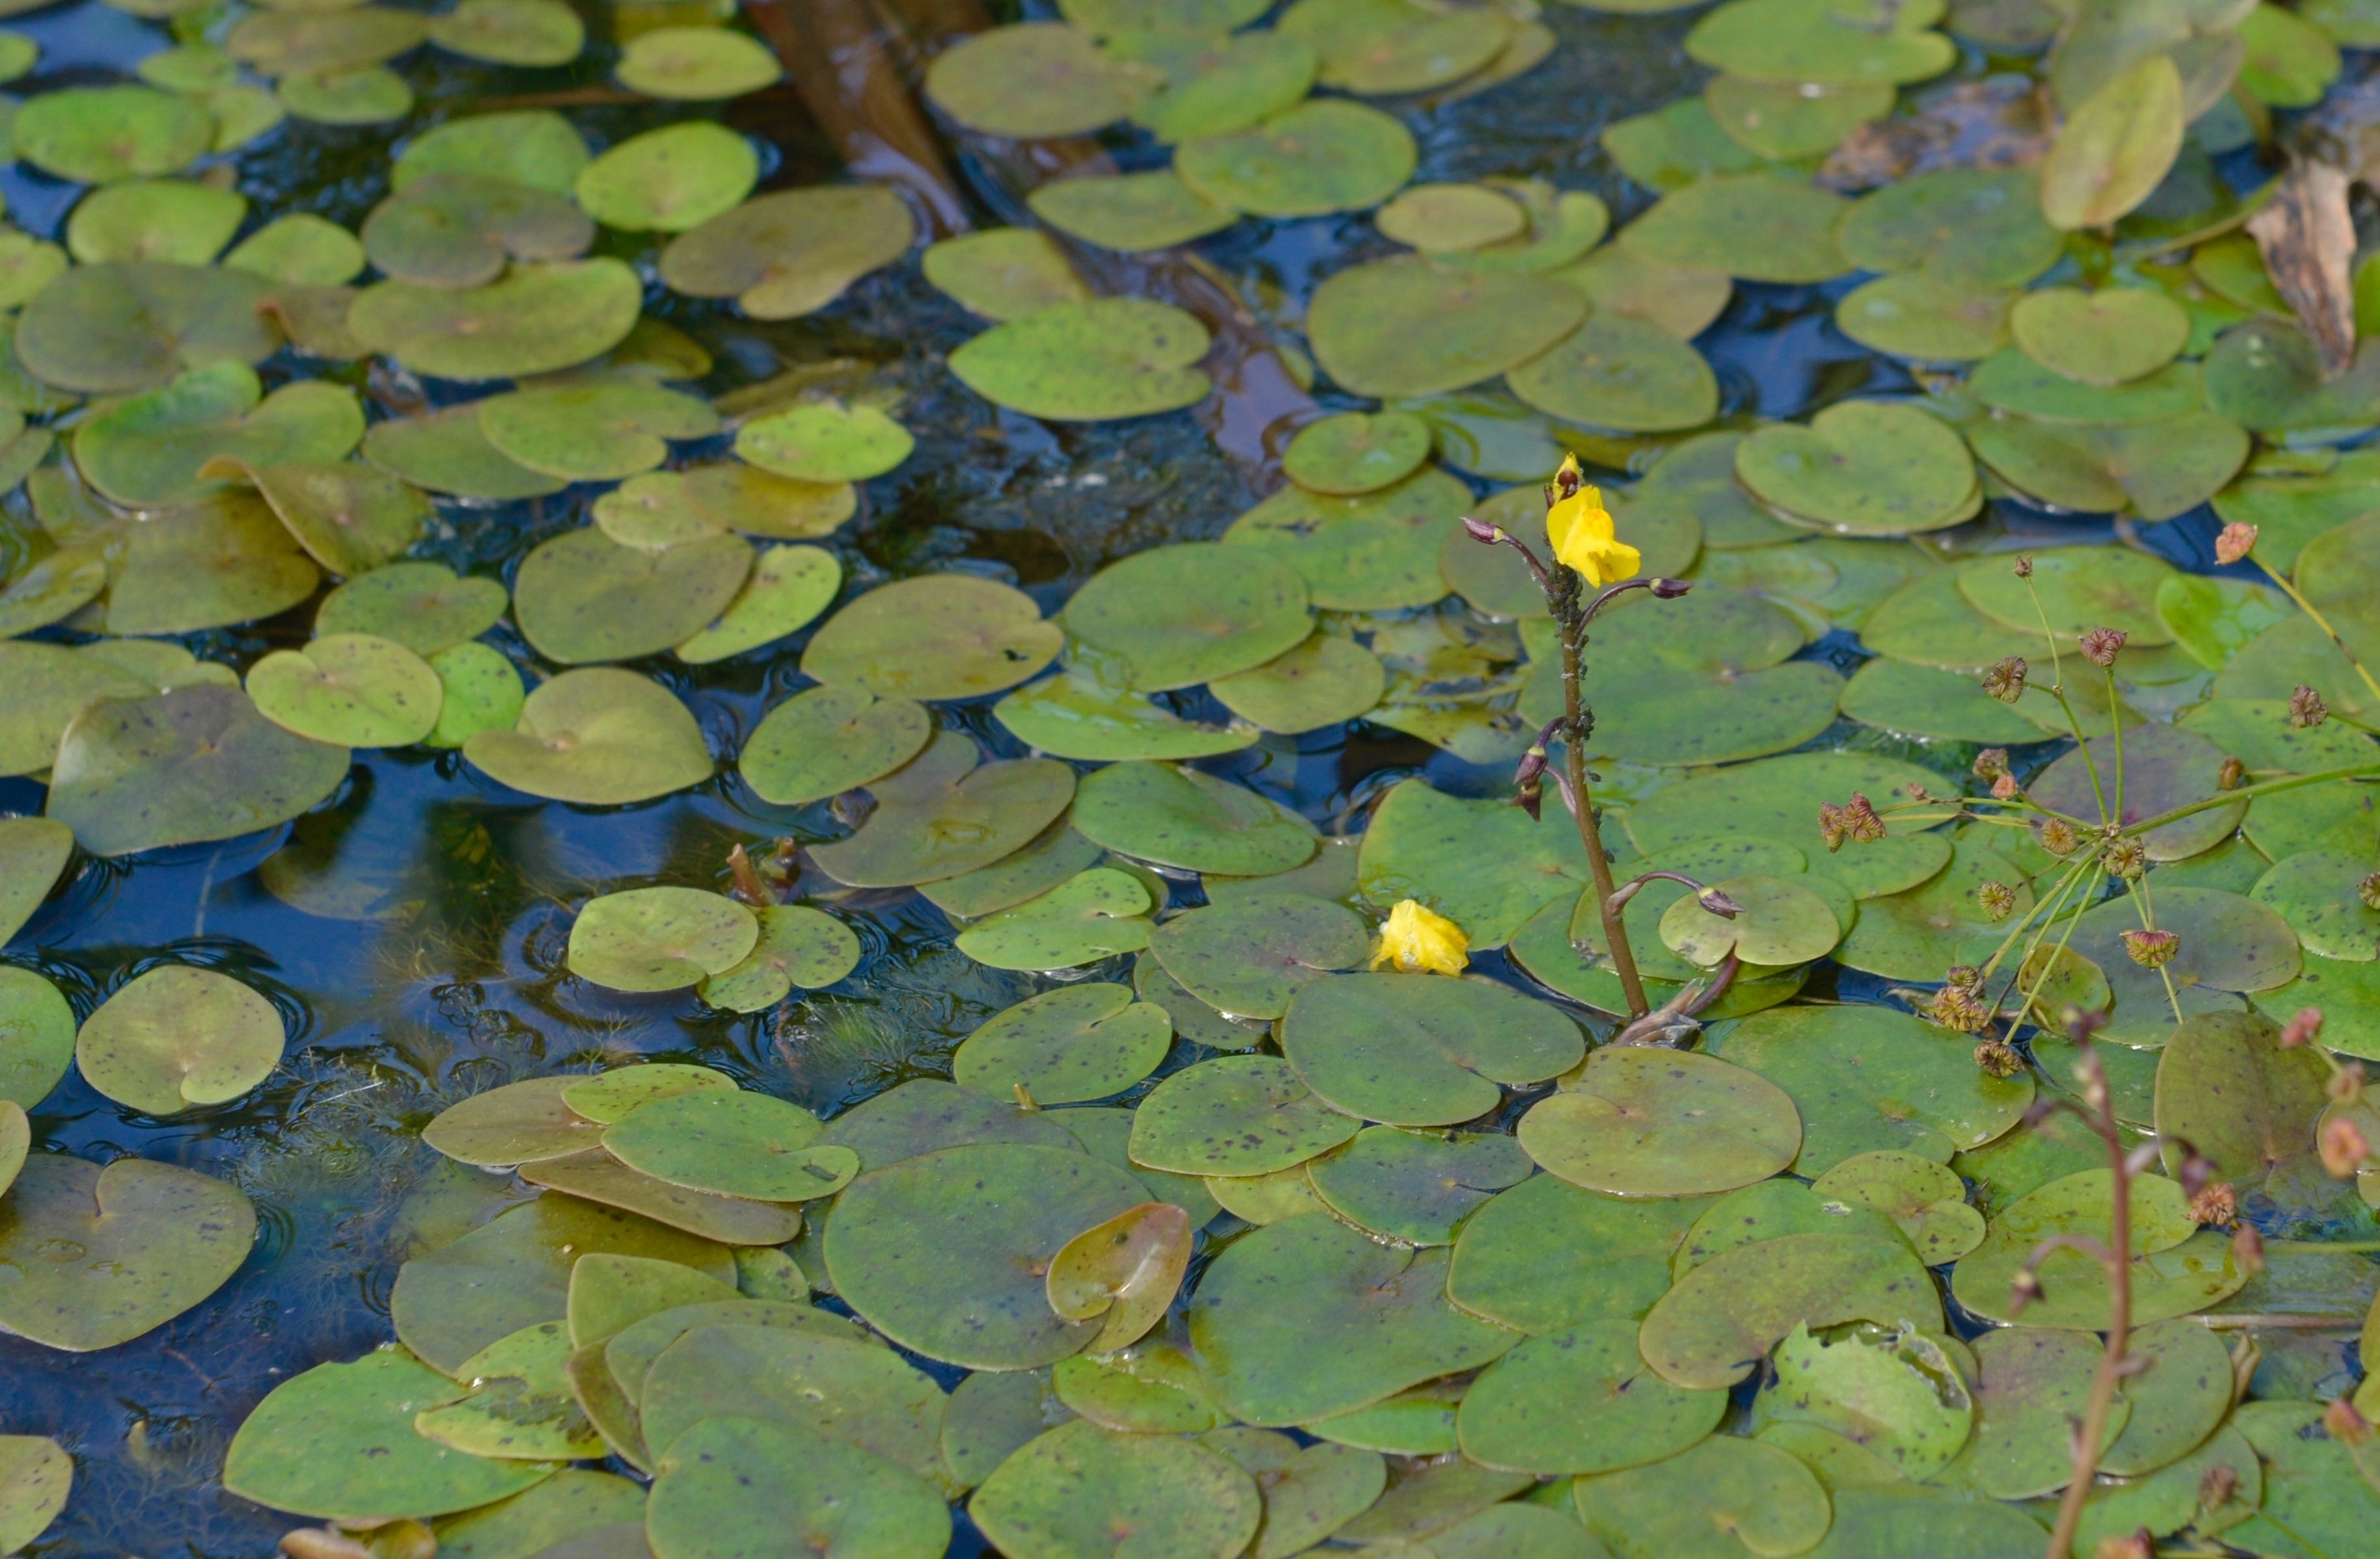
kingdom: Plantae
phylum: Tracheophyta
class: Magnoliopsida
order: Lamiales
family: Lentibulariaceae
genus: Utricularia
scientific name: Utricularia vulgaris
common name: Almindelig blærerod
